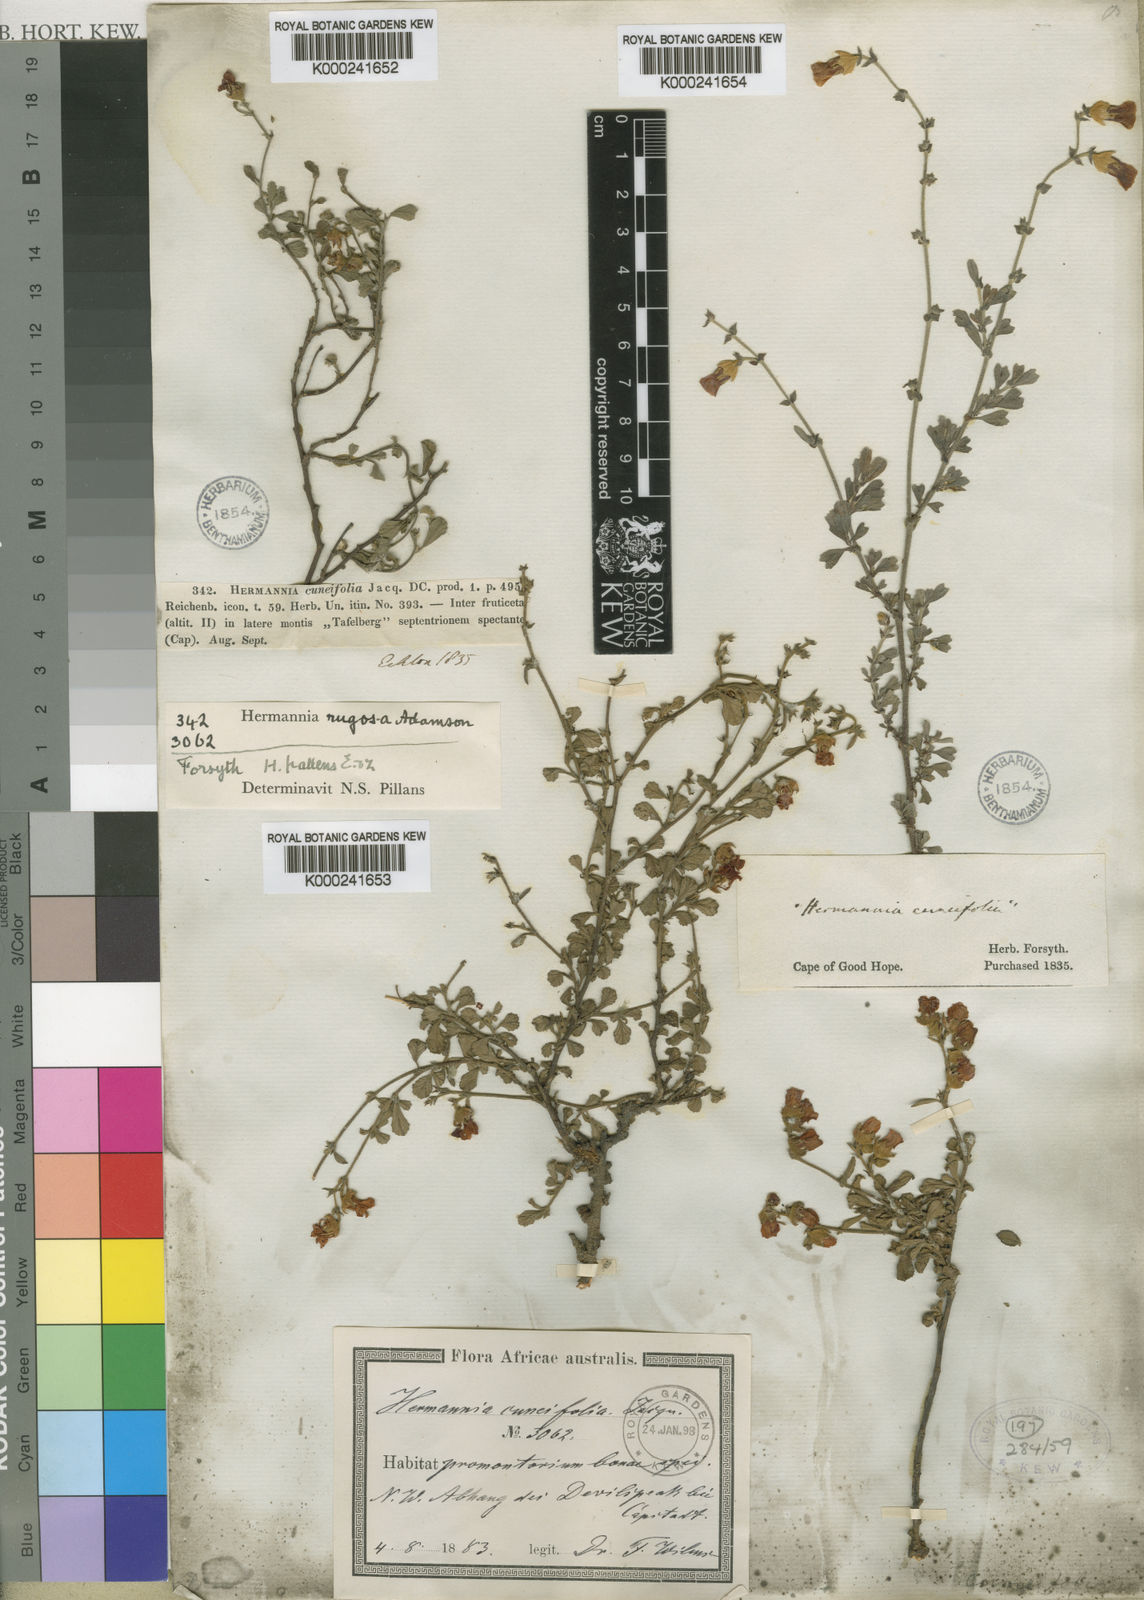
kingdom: Plantae
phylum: Tracheophyta
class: Magnoliopsida
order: Malvales
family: Malvaceae
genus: Hermannia
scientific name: Hermannia rugosa
